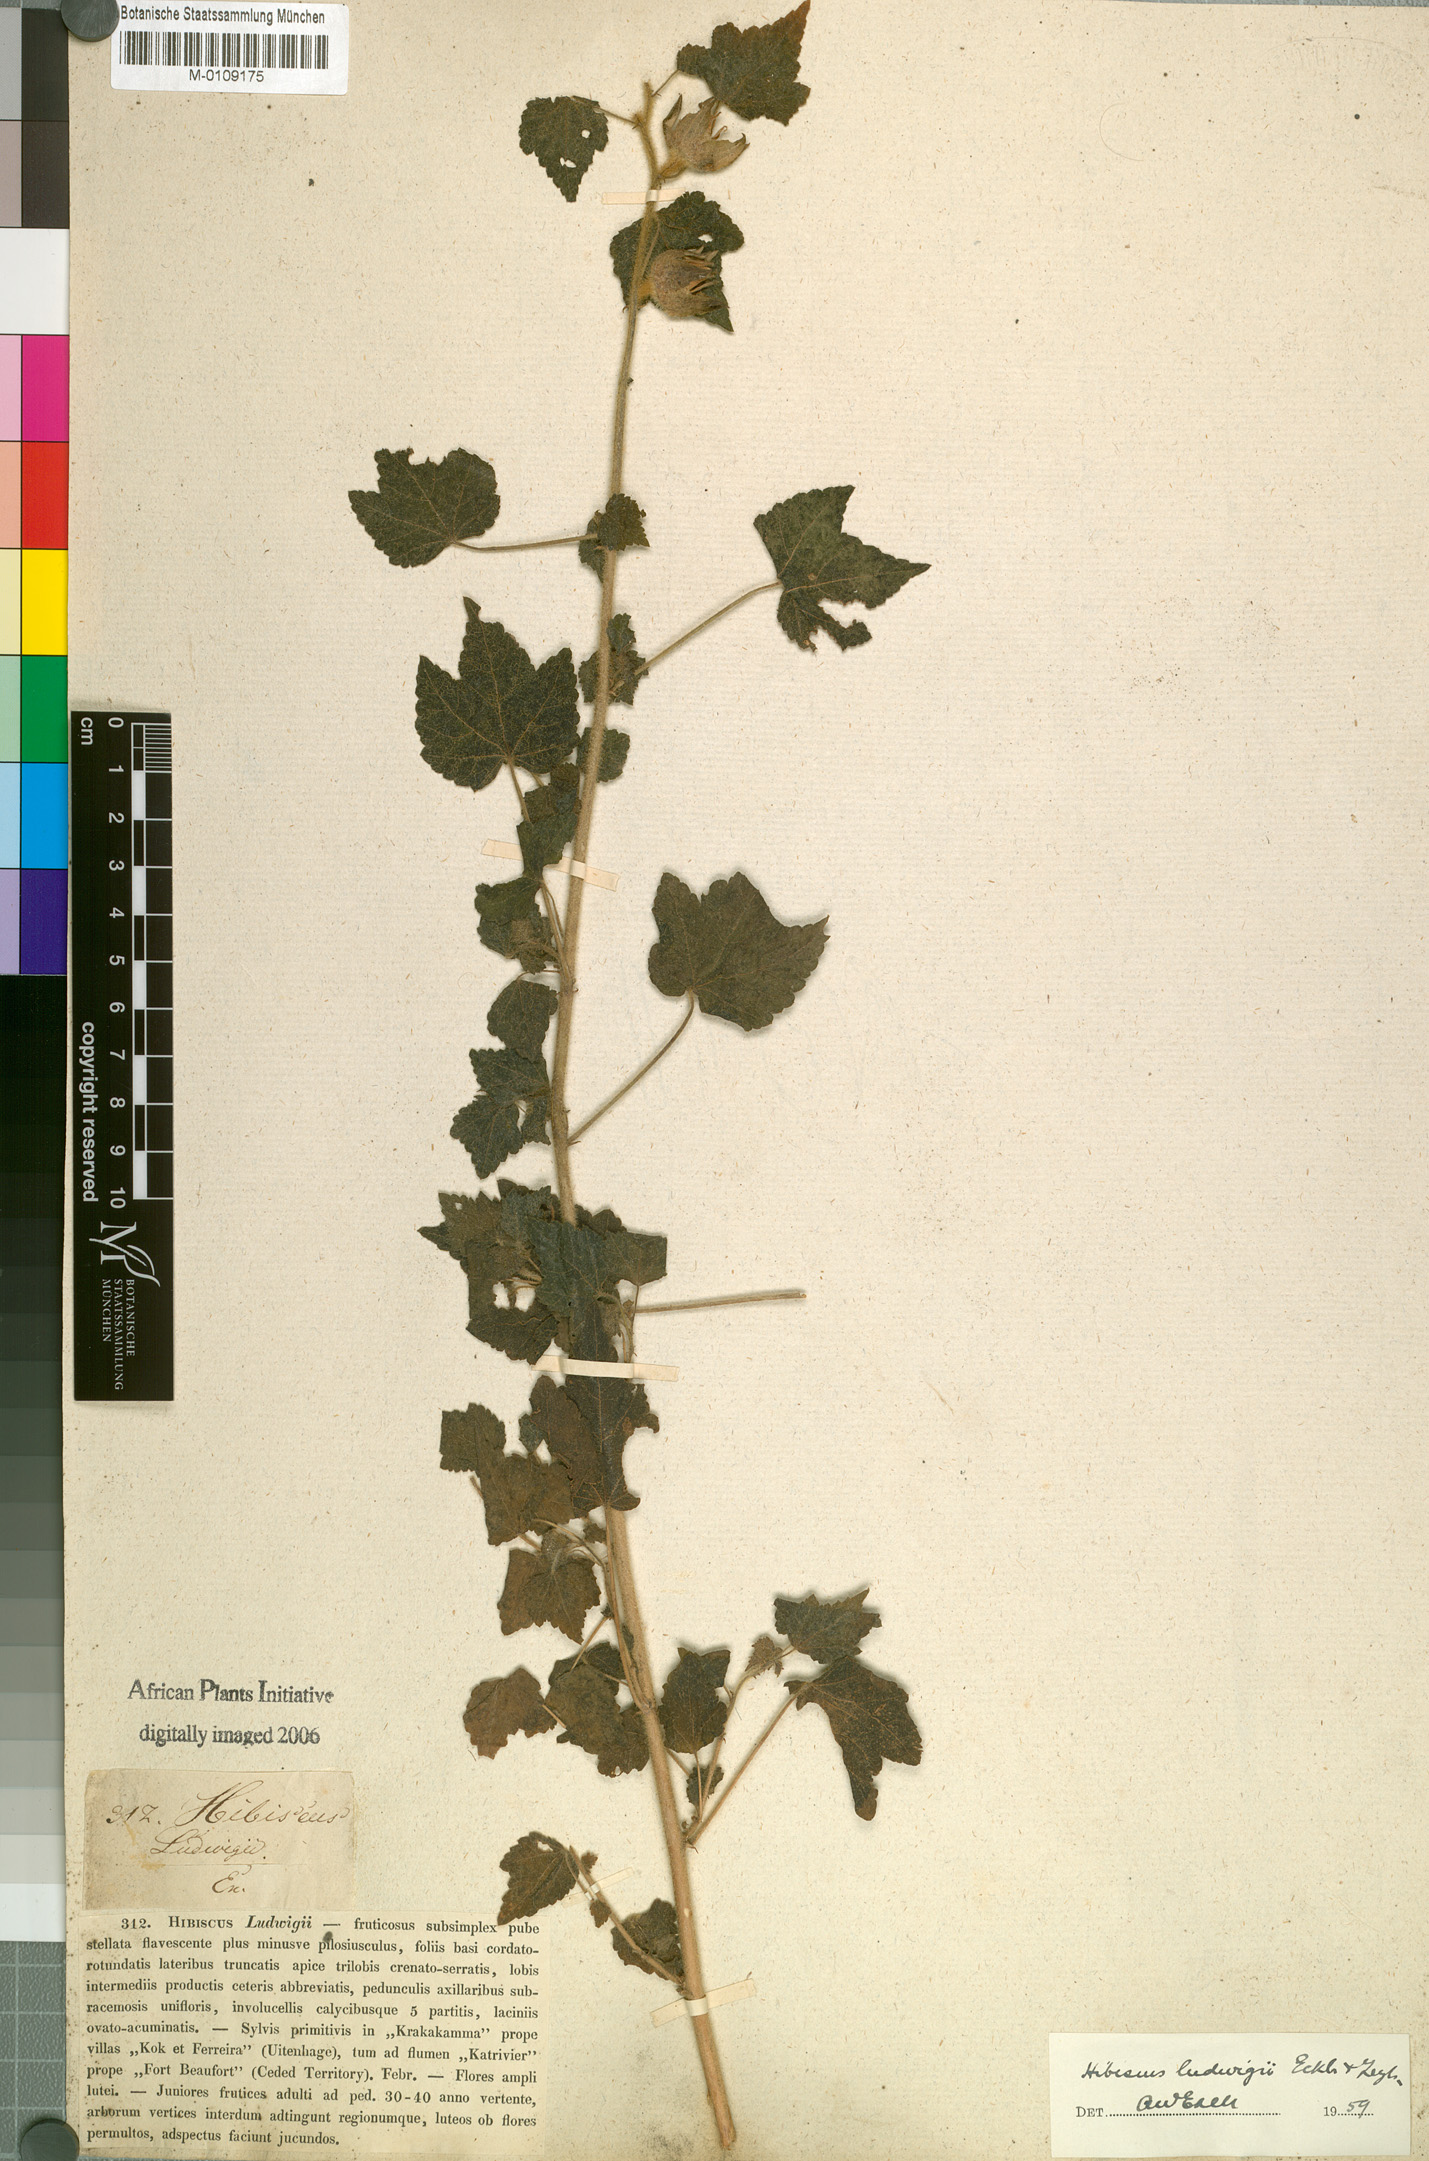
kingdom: Plantae
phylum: Tracheophyta
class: Magnoliopsida
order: Malvales
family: Malvaceae
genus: Hibiscus
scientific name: Hibiscus ludwigii
